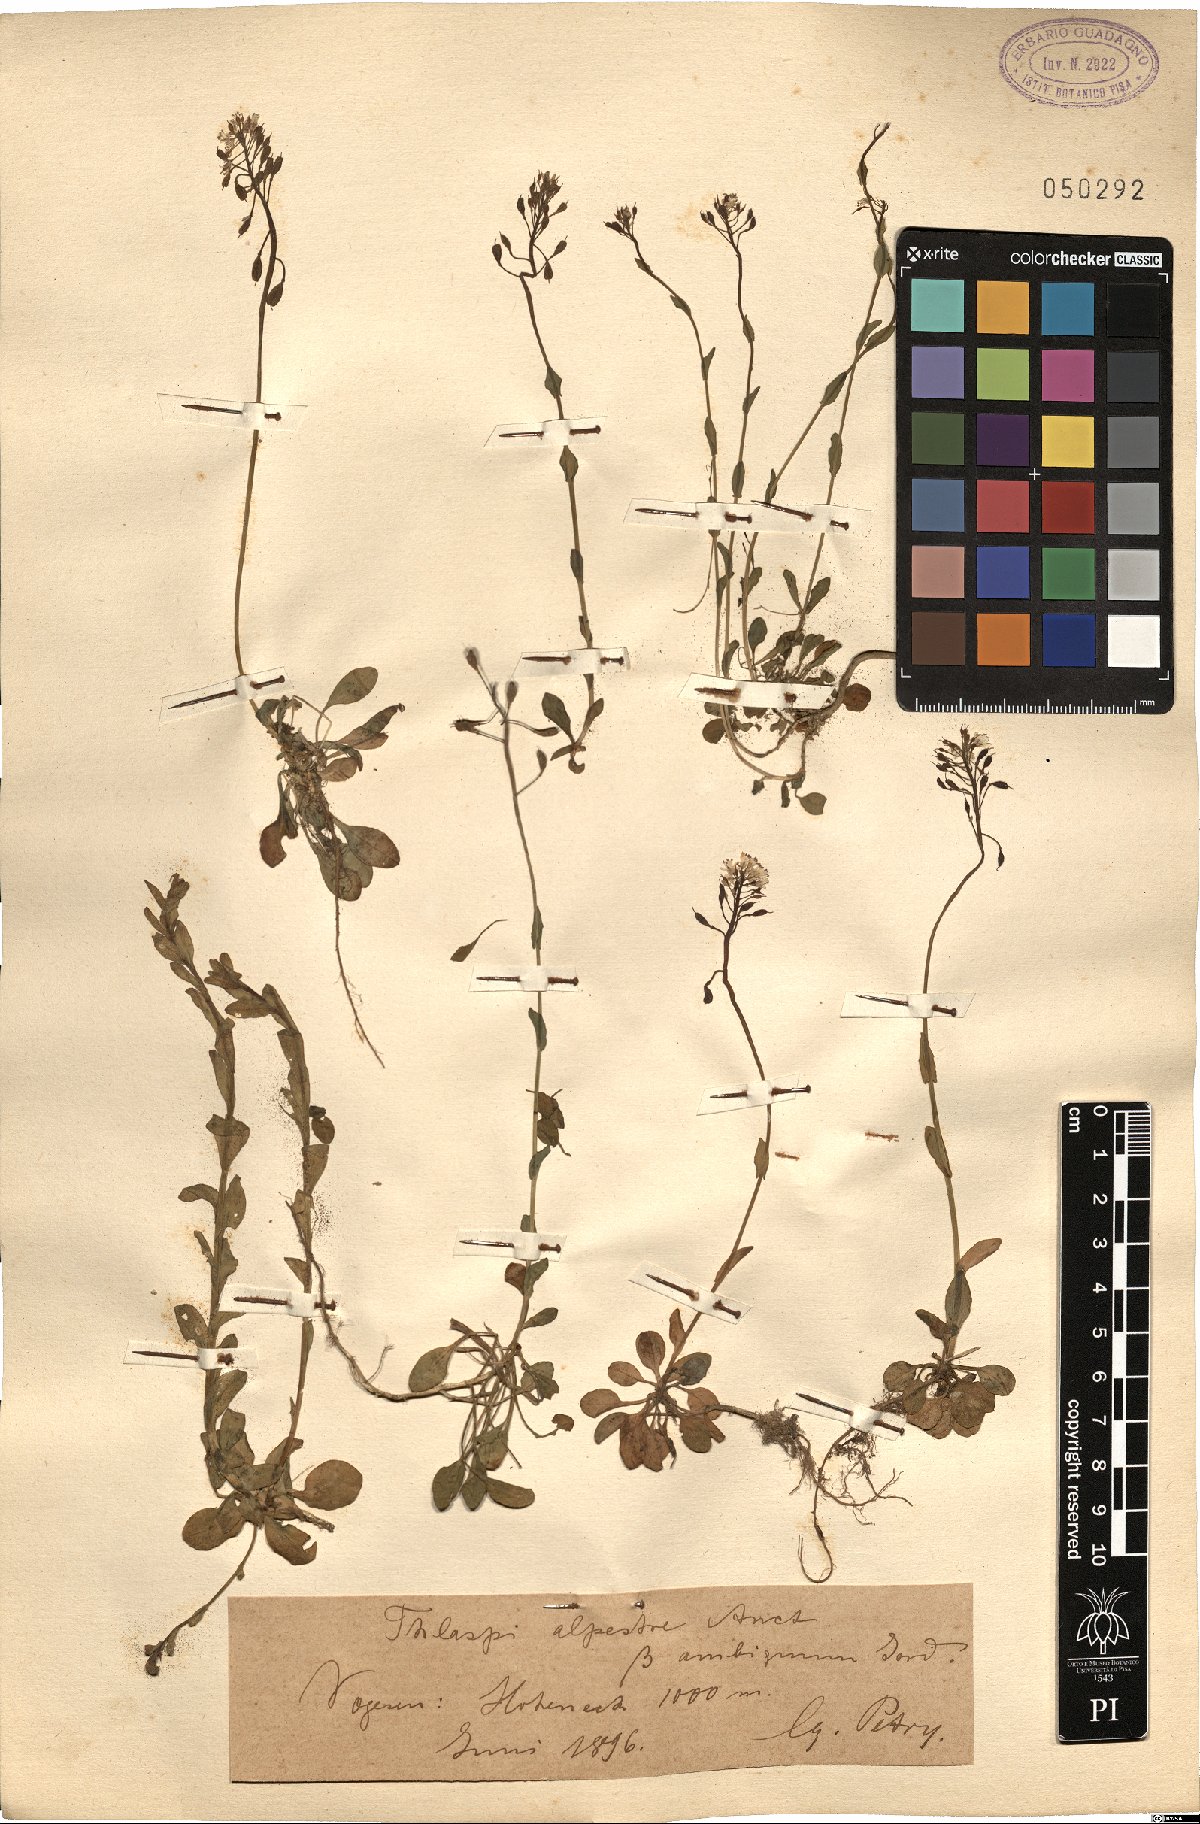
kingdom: Plantae
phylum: Tracheophyta
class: Magnoliopsida
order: Brassicales
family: Brassicaceae
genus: Thlaspi
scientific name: Thlaspi alpestre
